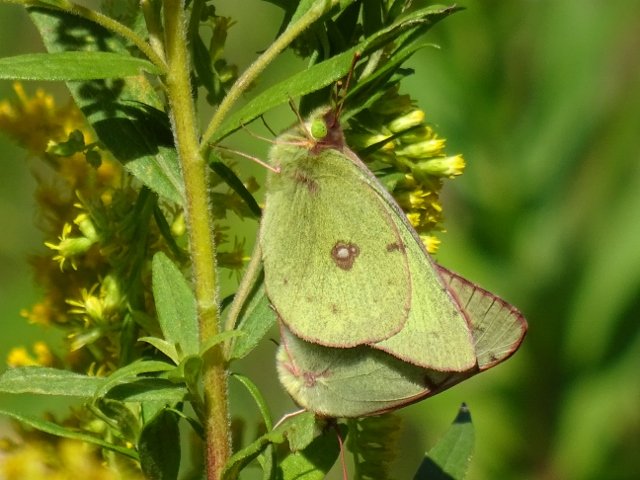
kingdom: Animalia
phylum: Arthropoda
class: Insecta
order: Lepidoptera
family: Pieridae
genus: Colias
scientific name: Colias philodice
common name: Clouded Sulphur
